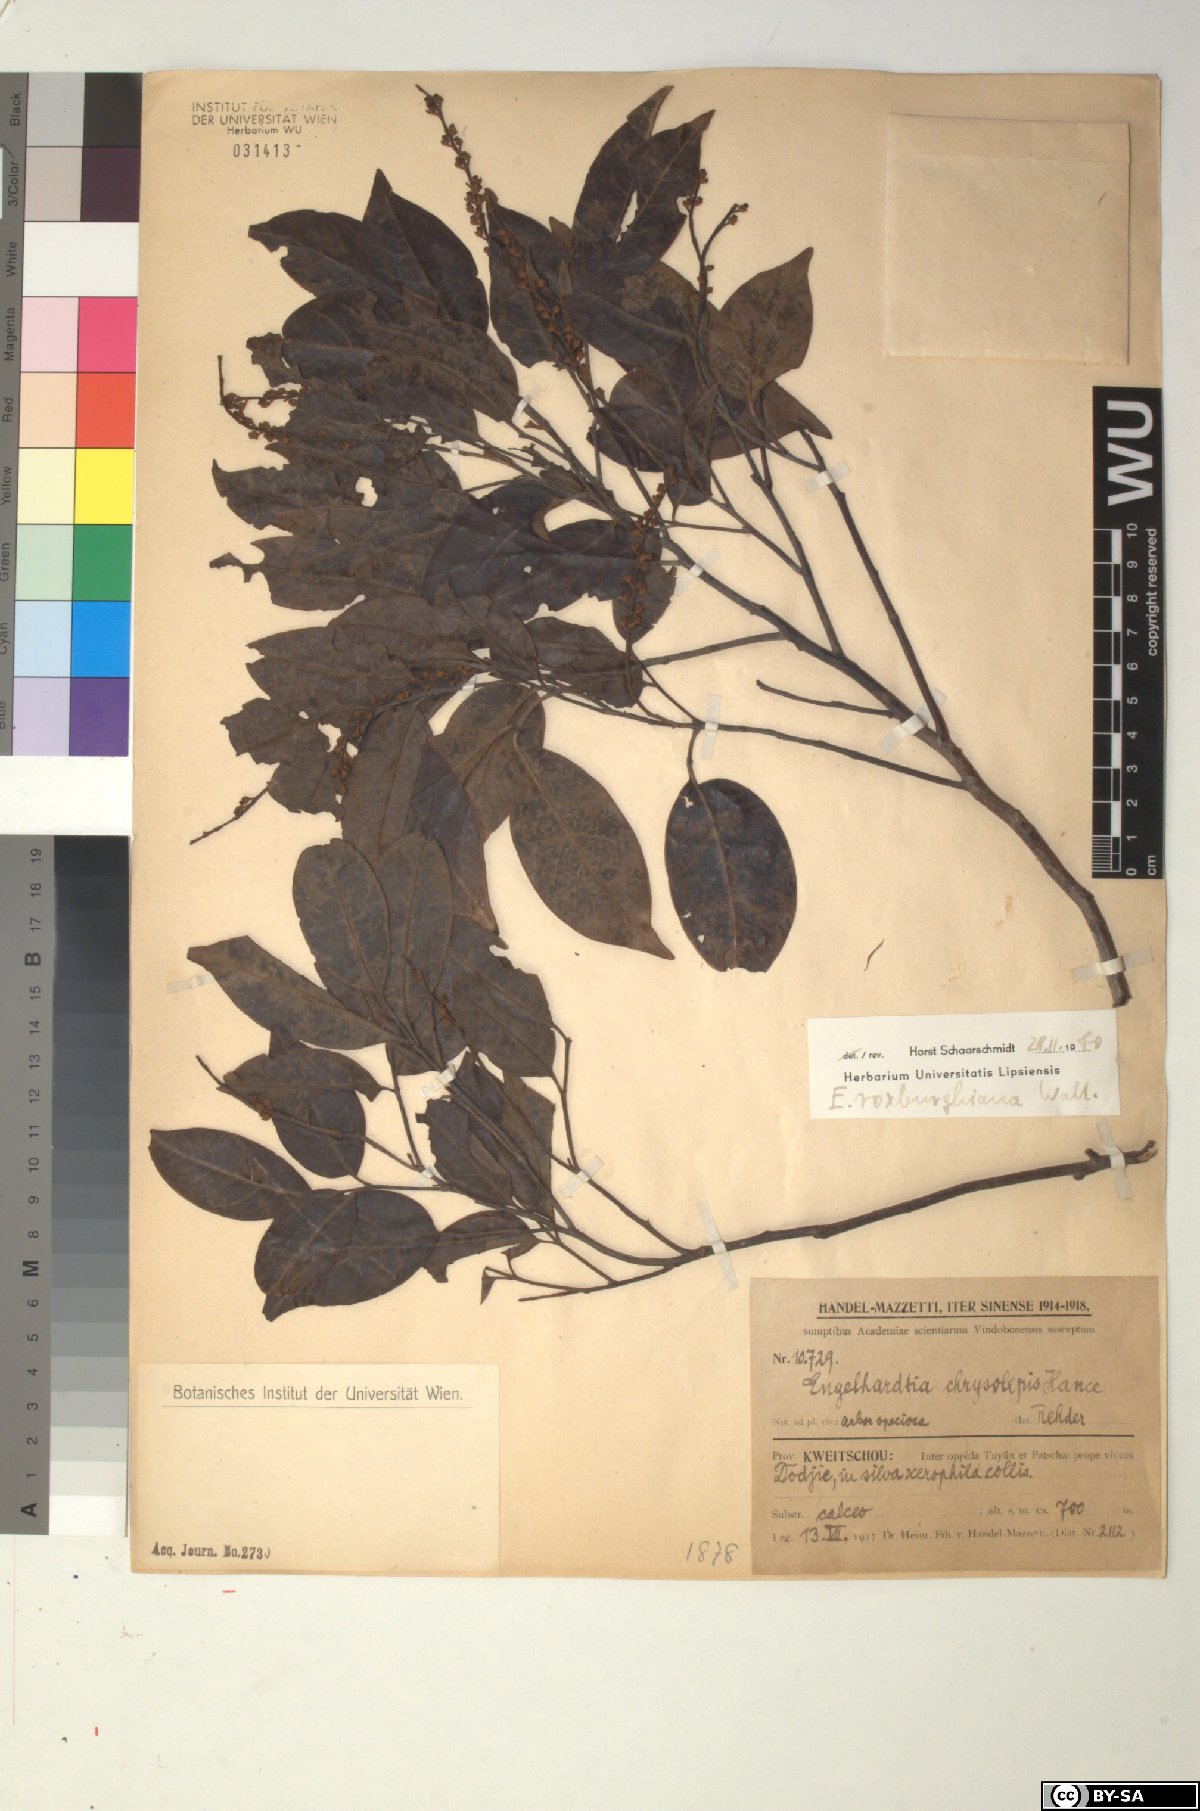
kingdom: Plantae
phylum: Tracheophyta
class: Magnoliopsida
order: Fagales
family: Juglandaceae
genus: Engelhardia
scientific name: Engelhardia roxburghiana
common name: Golden malay beam
